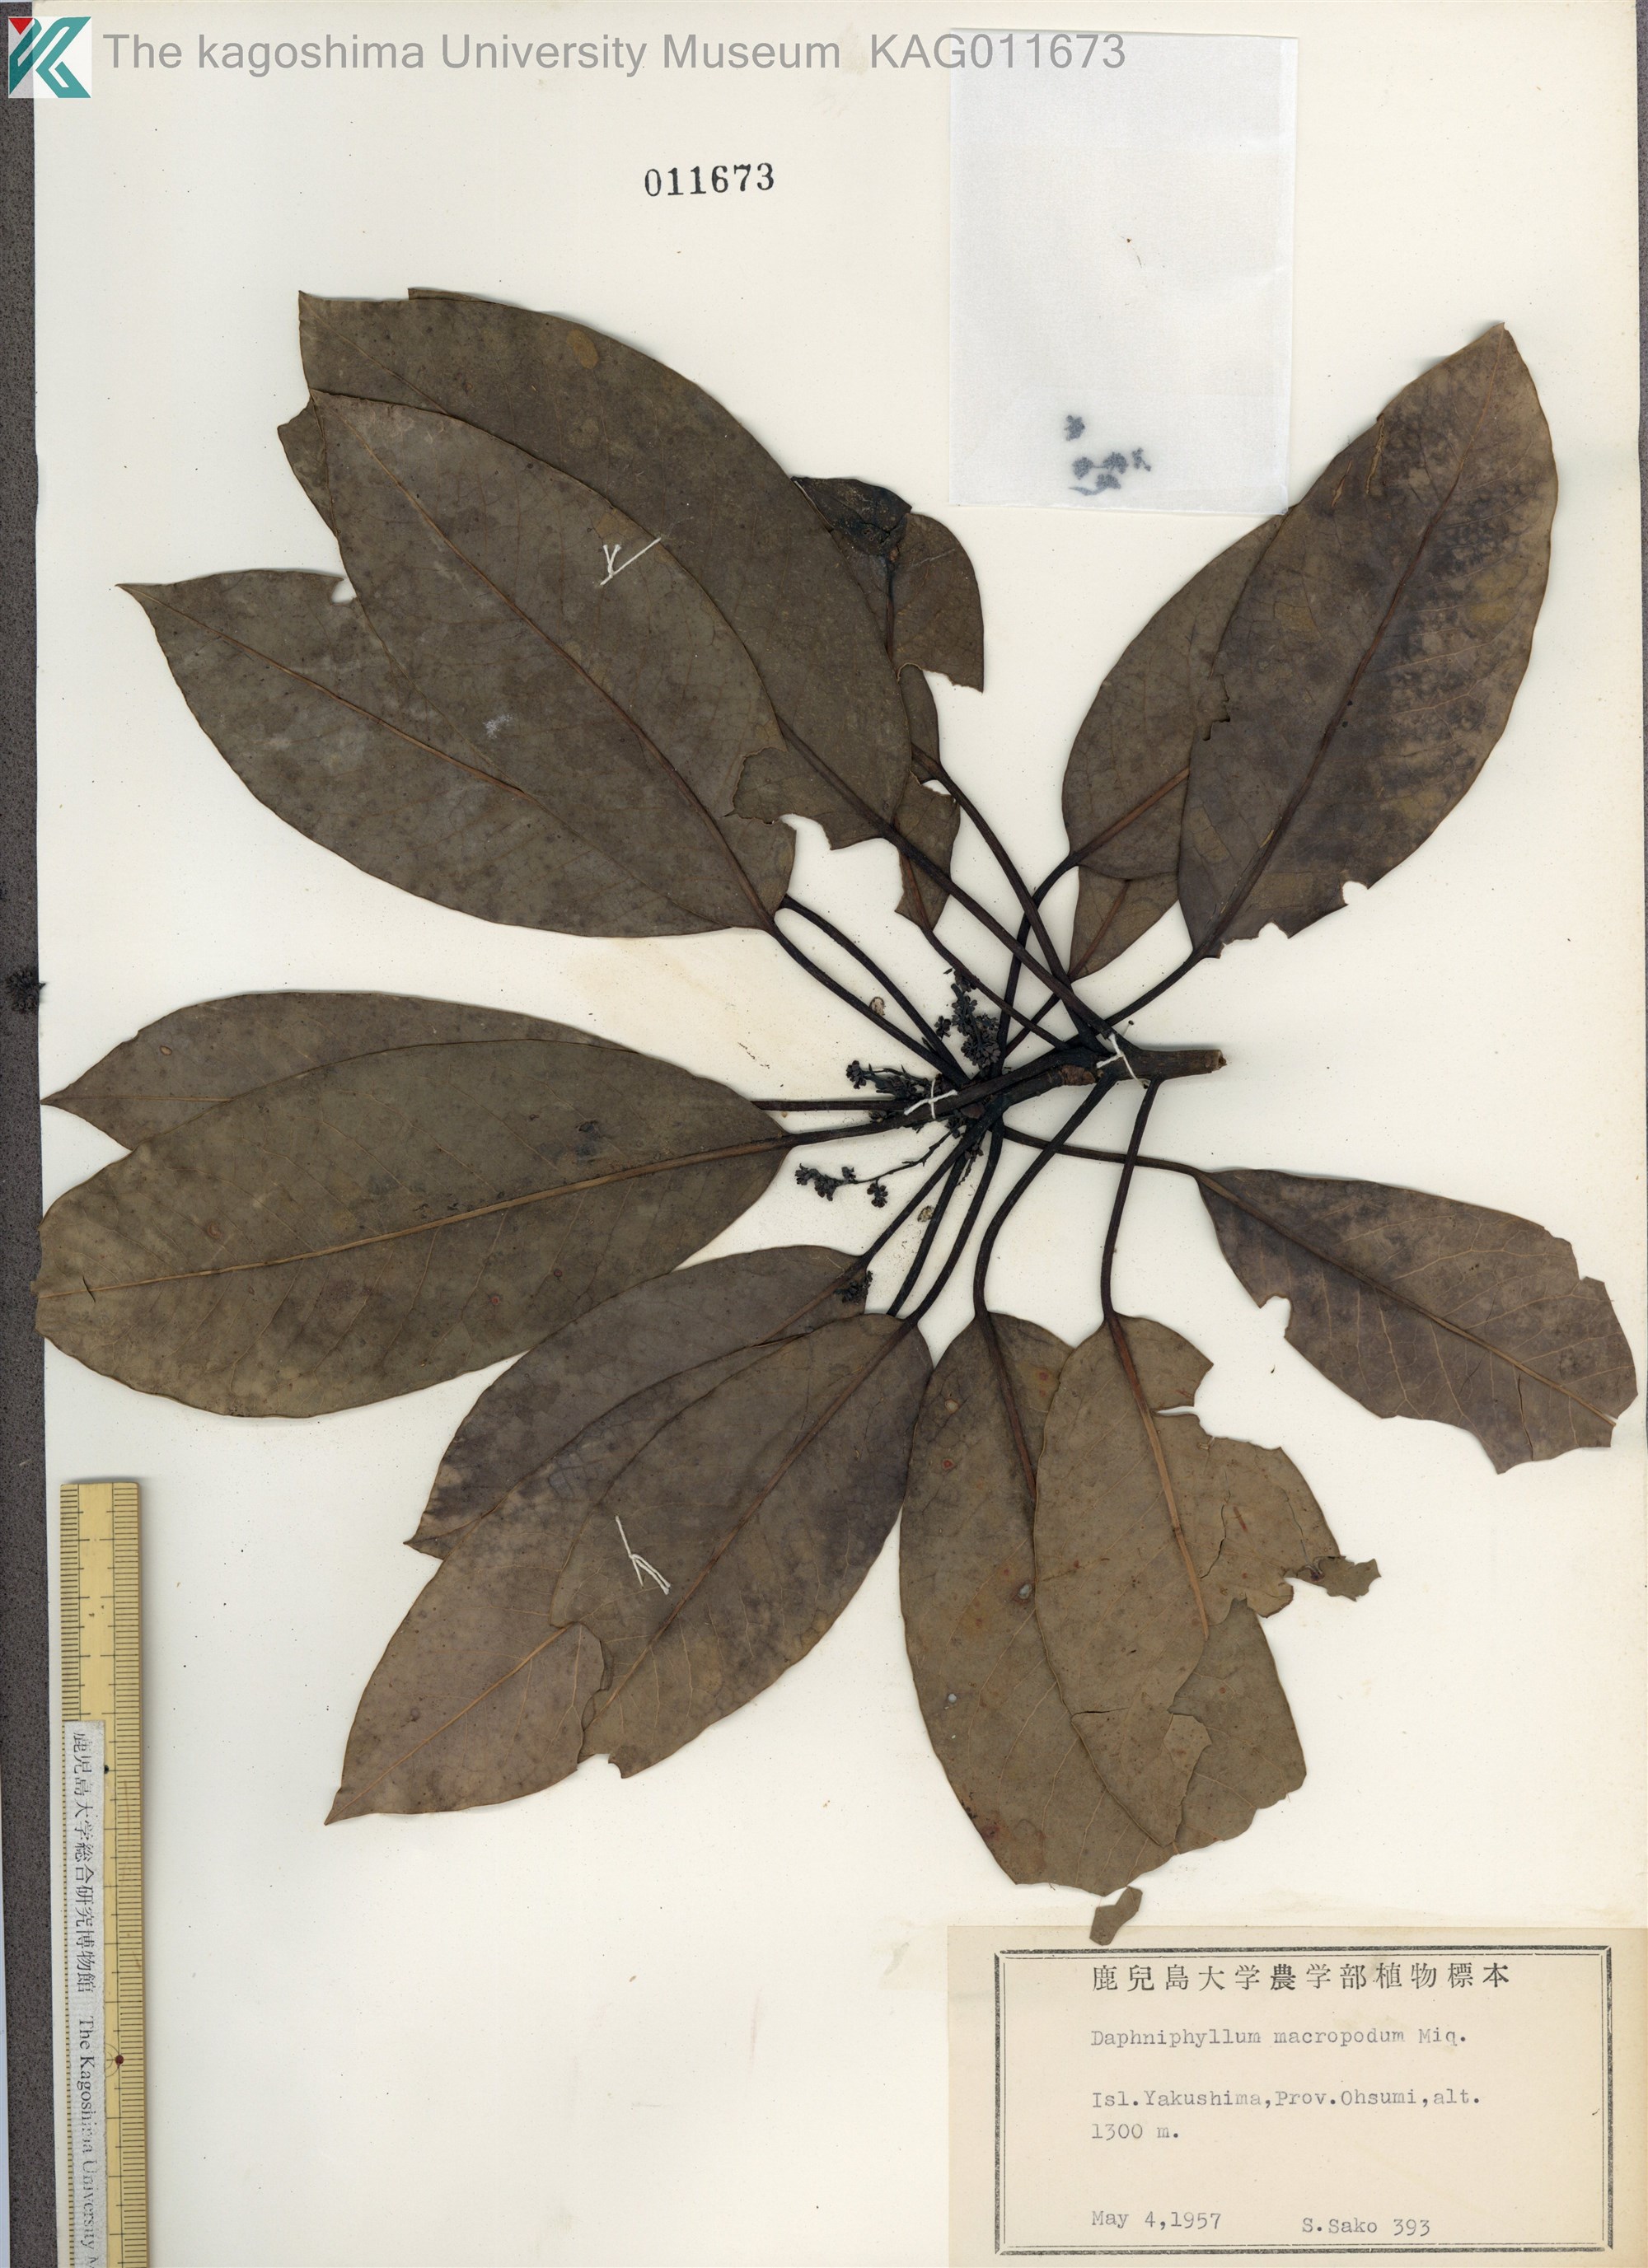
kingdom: Plantae
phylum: Tracheophyta
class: Magnoliopsida
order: Saxifragales
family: Daphniphyllaceae
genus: Daphniphyllum
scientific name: Daphniphyllum macropodum
